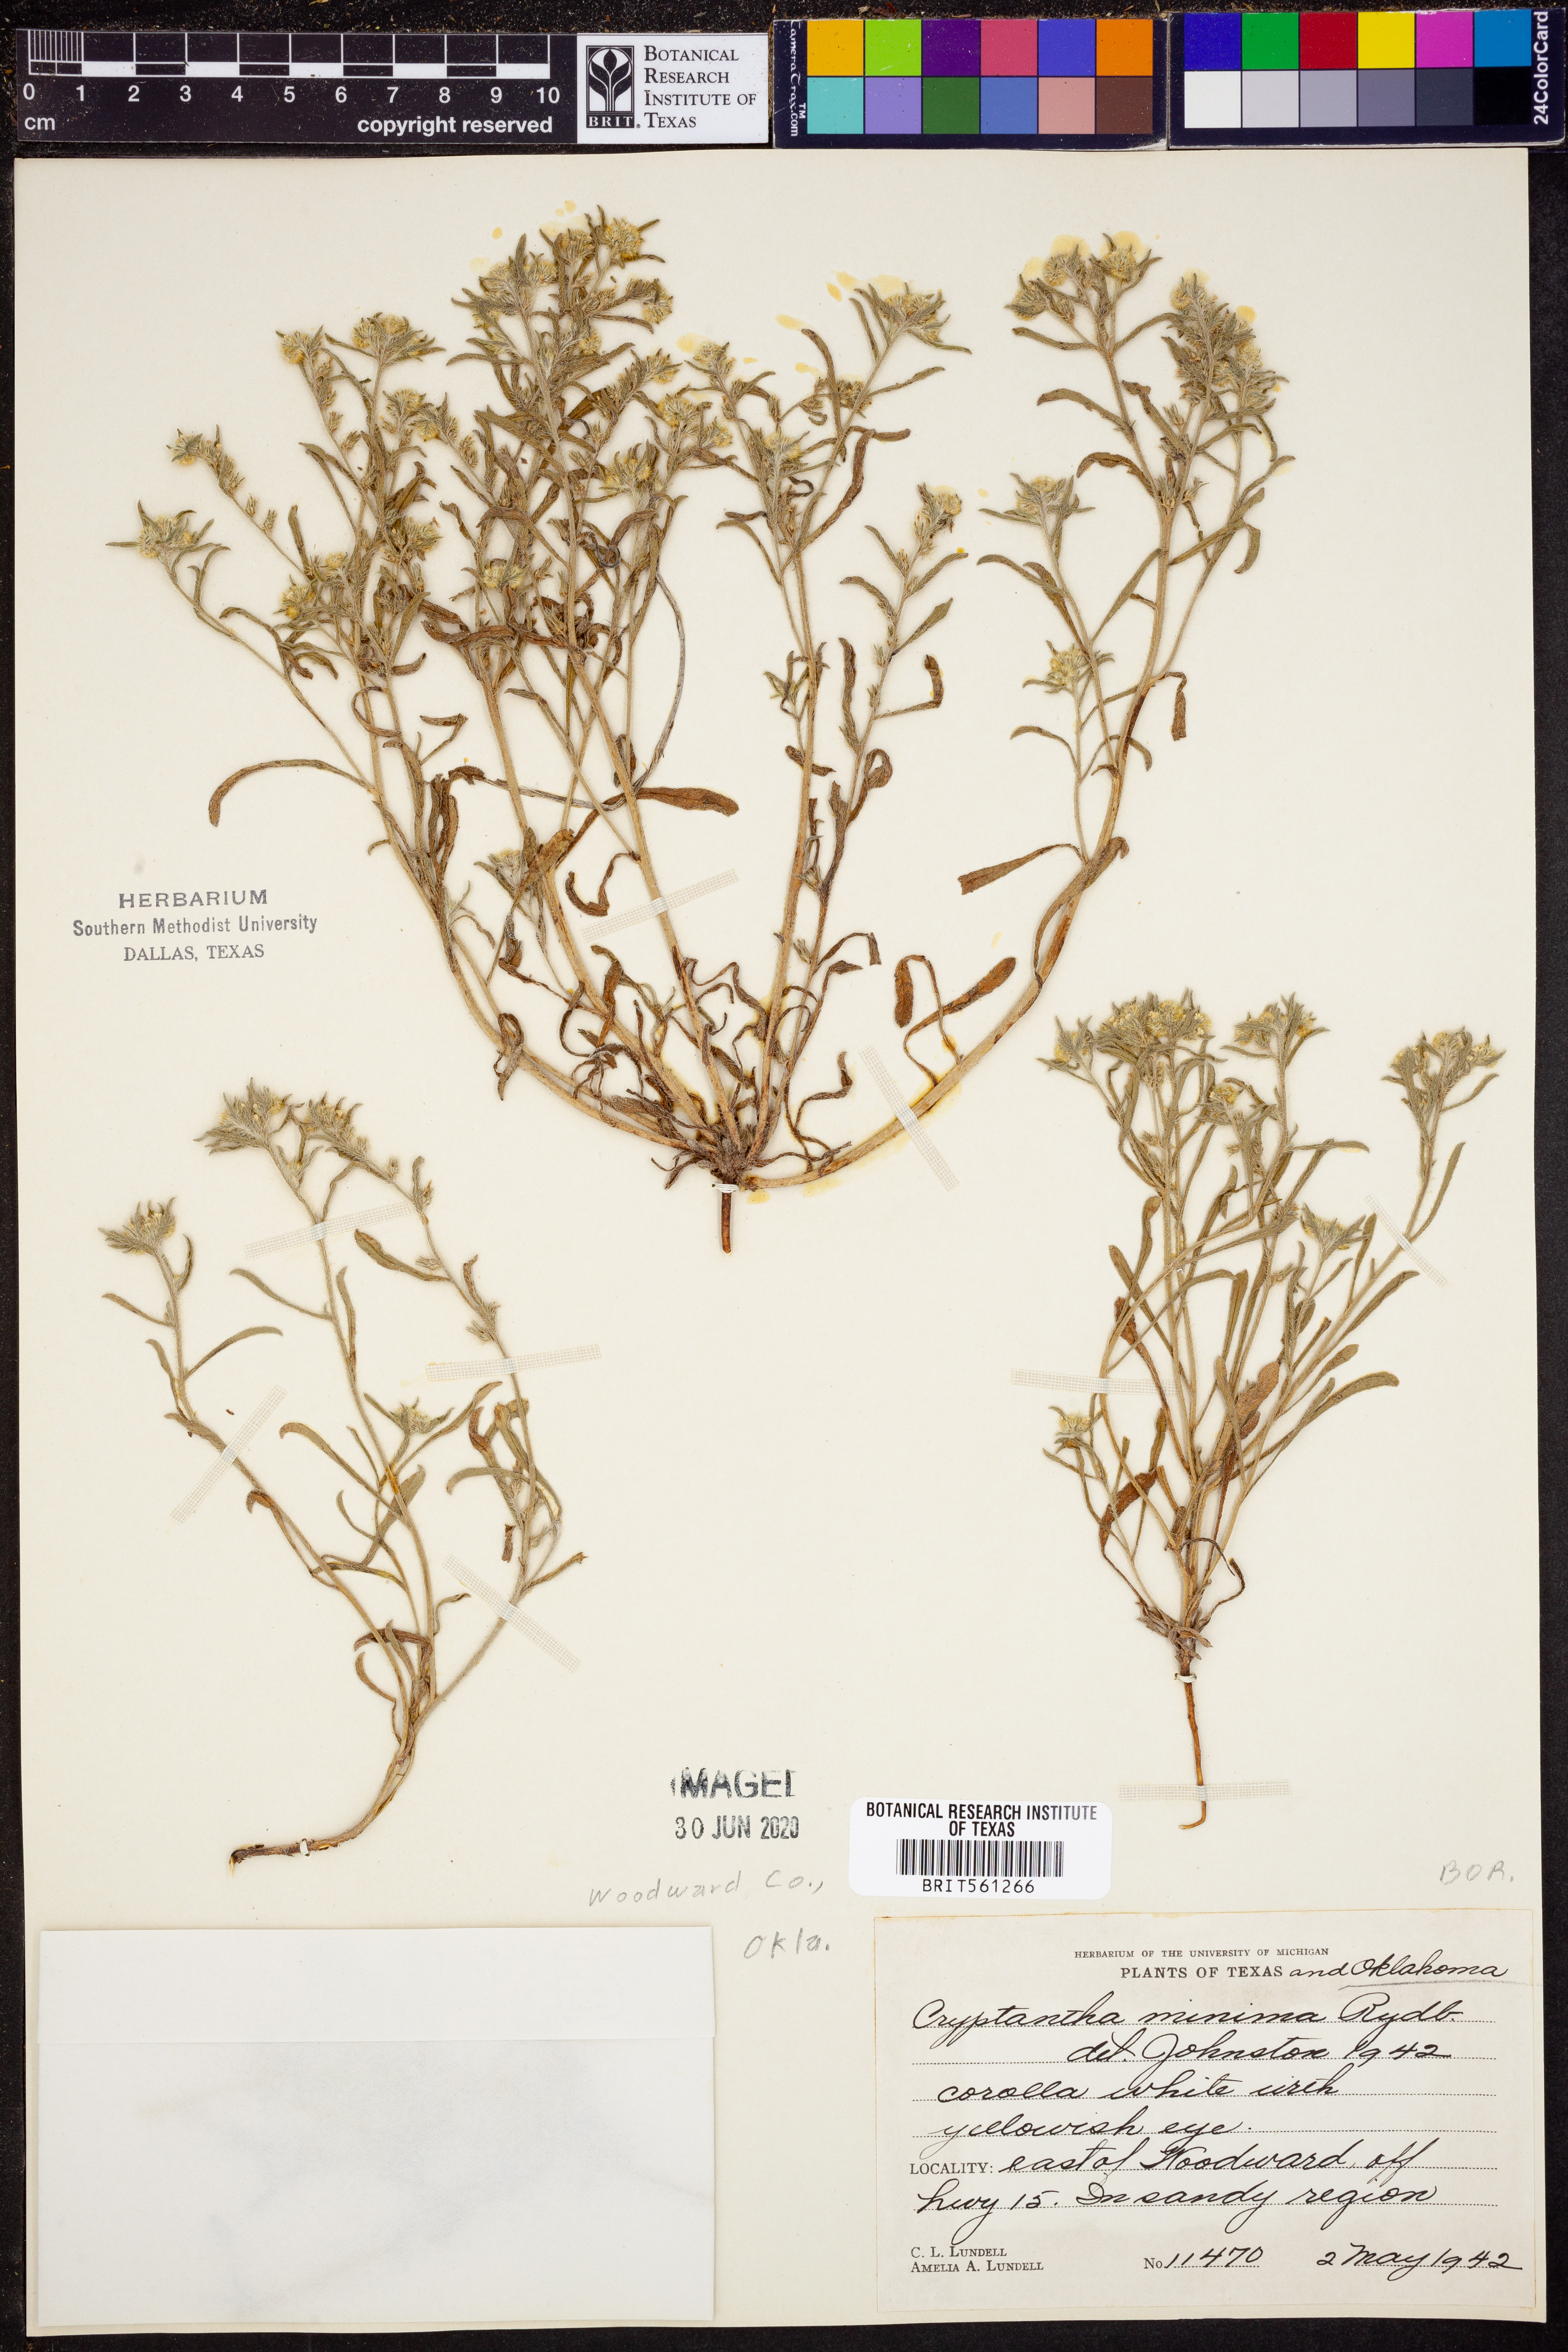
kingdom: Plantae
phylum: Tracheophyta
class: Magnoliopsida
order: Boraginales
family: Boraginaceae
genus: Cryptantha
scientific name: Cryptantha minima
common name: Little cat's-eye
